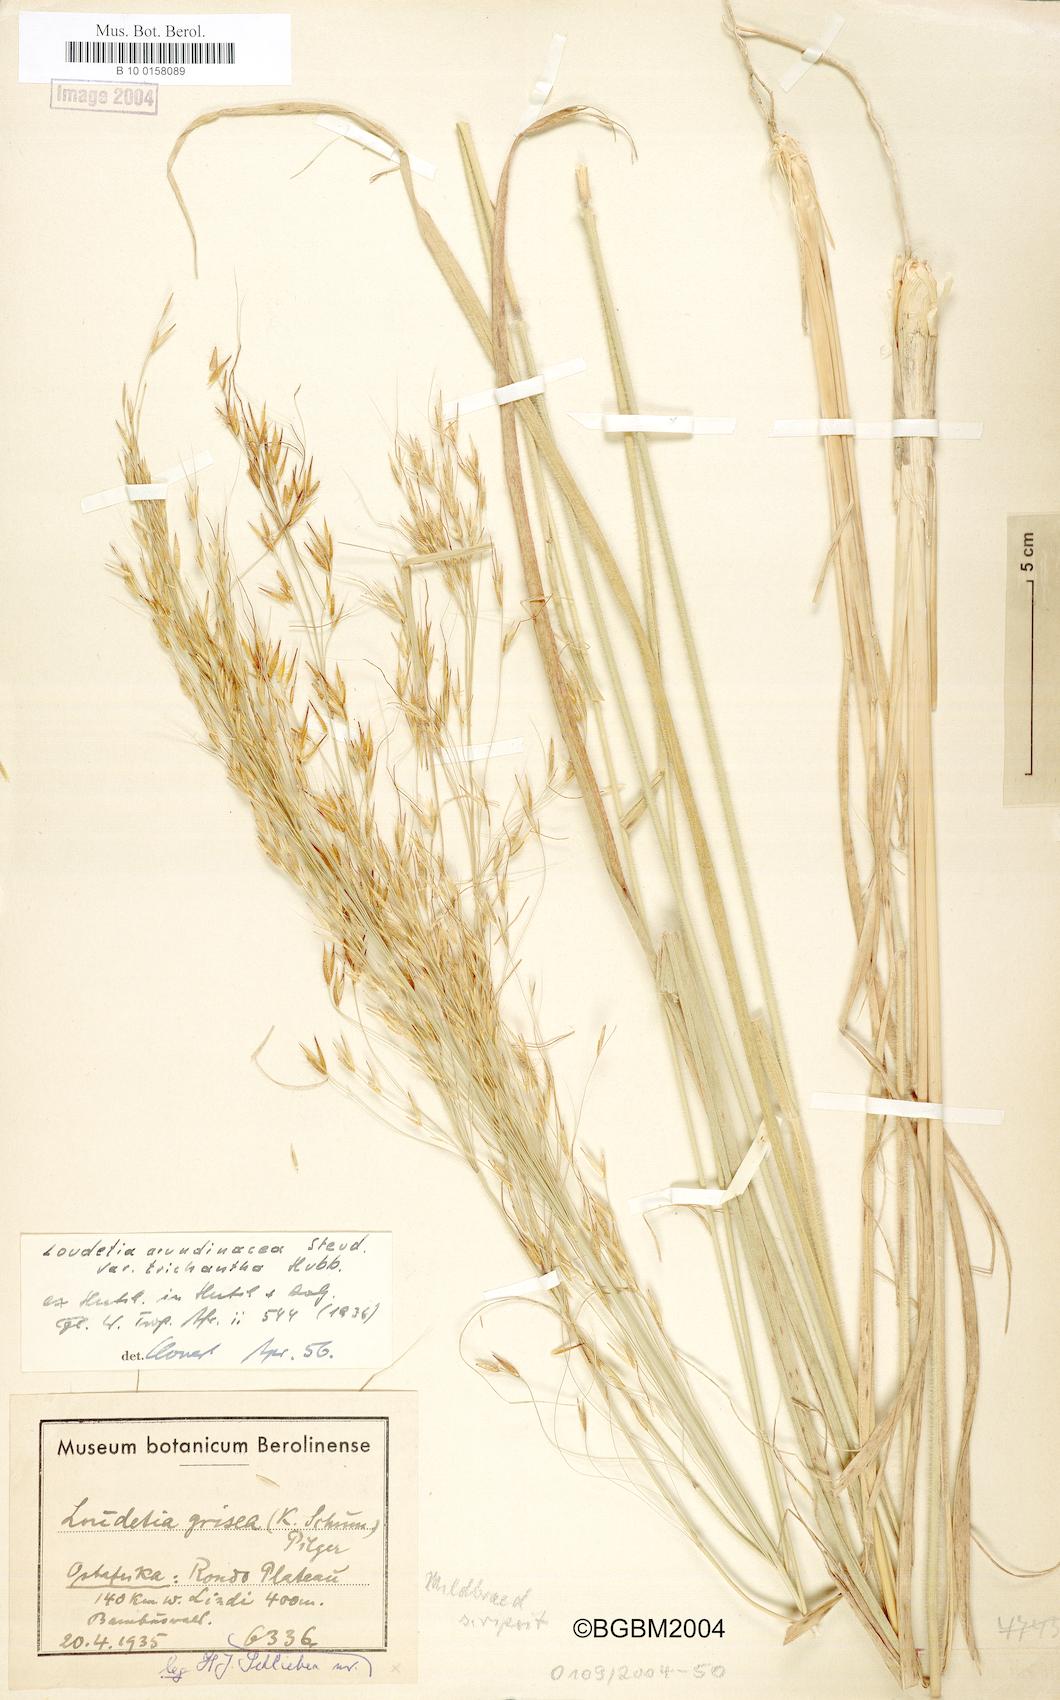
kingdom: Plantae
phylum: Tracheophyta
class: Liliopsida
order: Poales
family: Poaceae
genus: Loudetia
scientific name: Loudetia arundinacea
